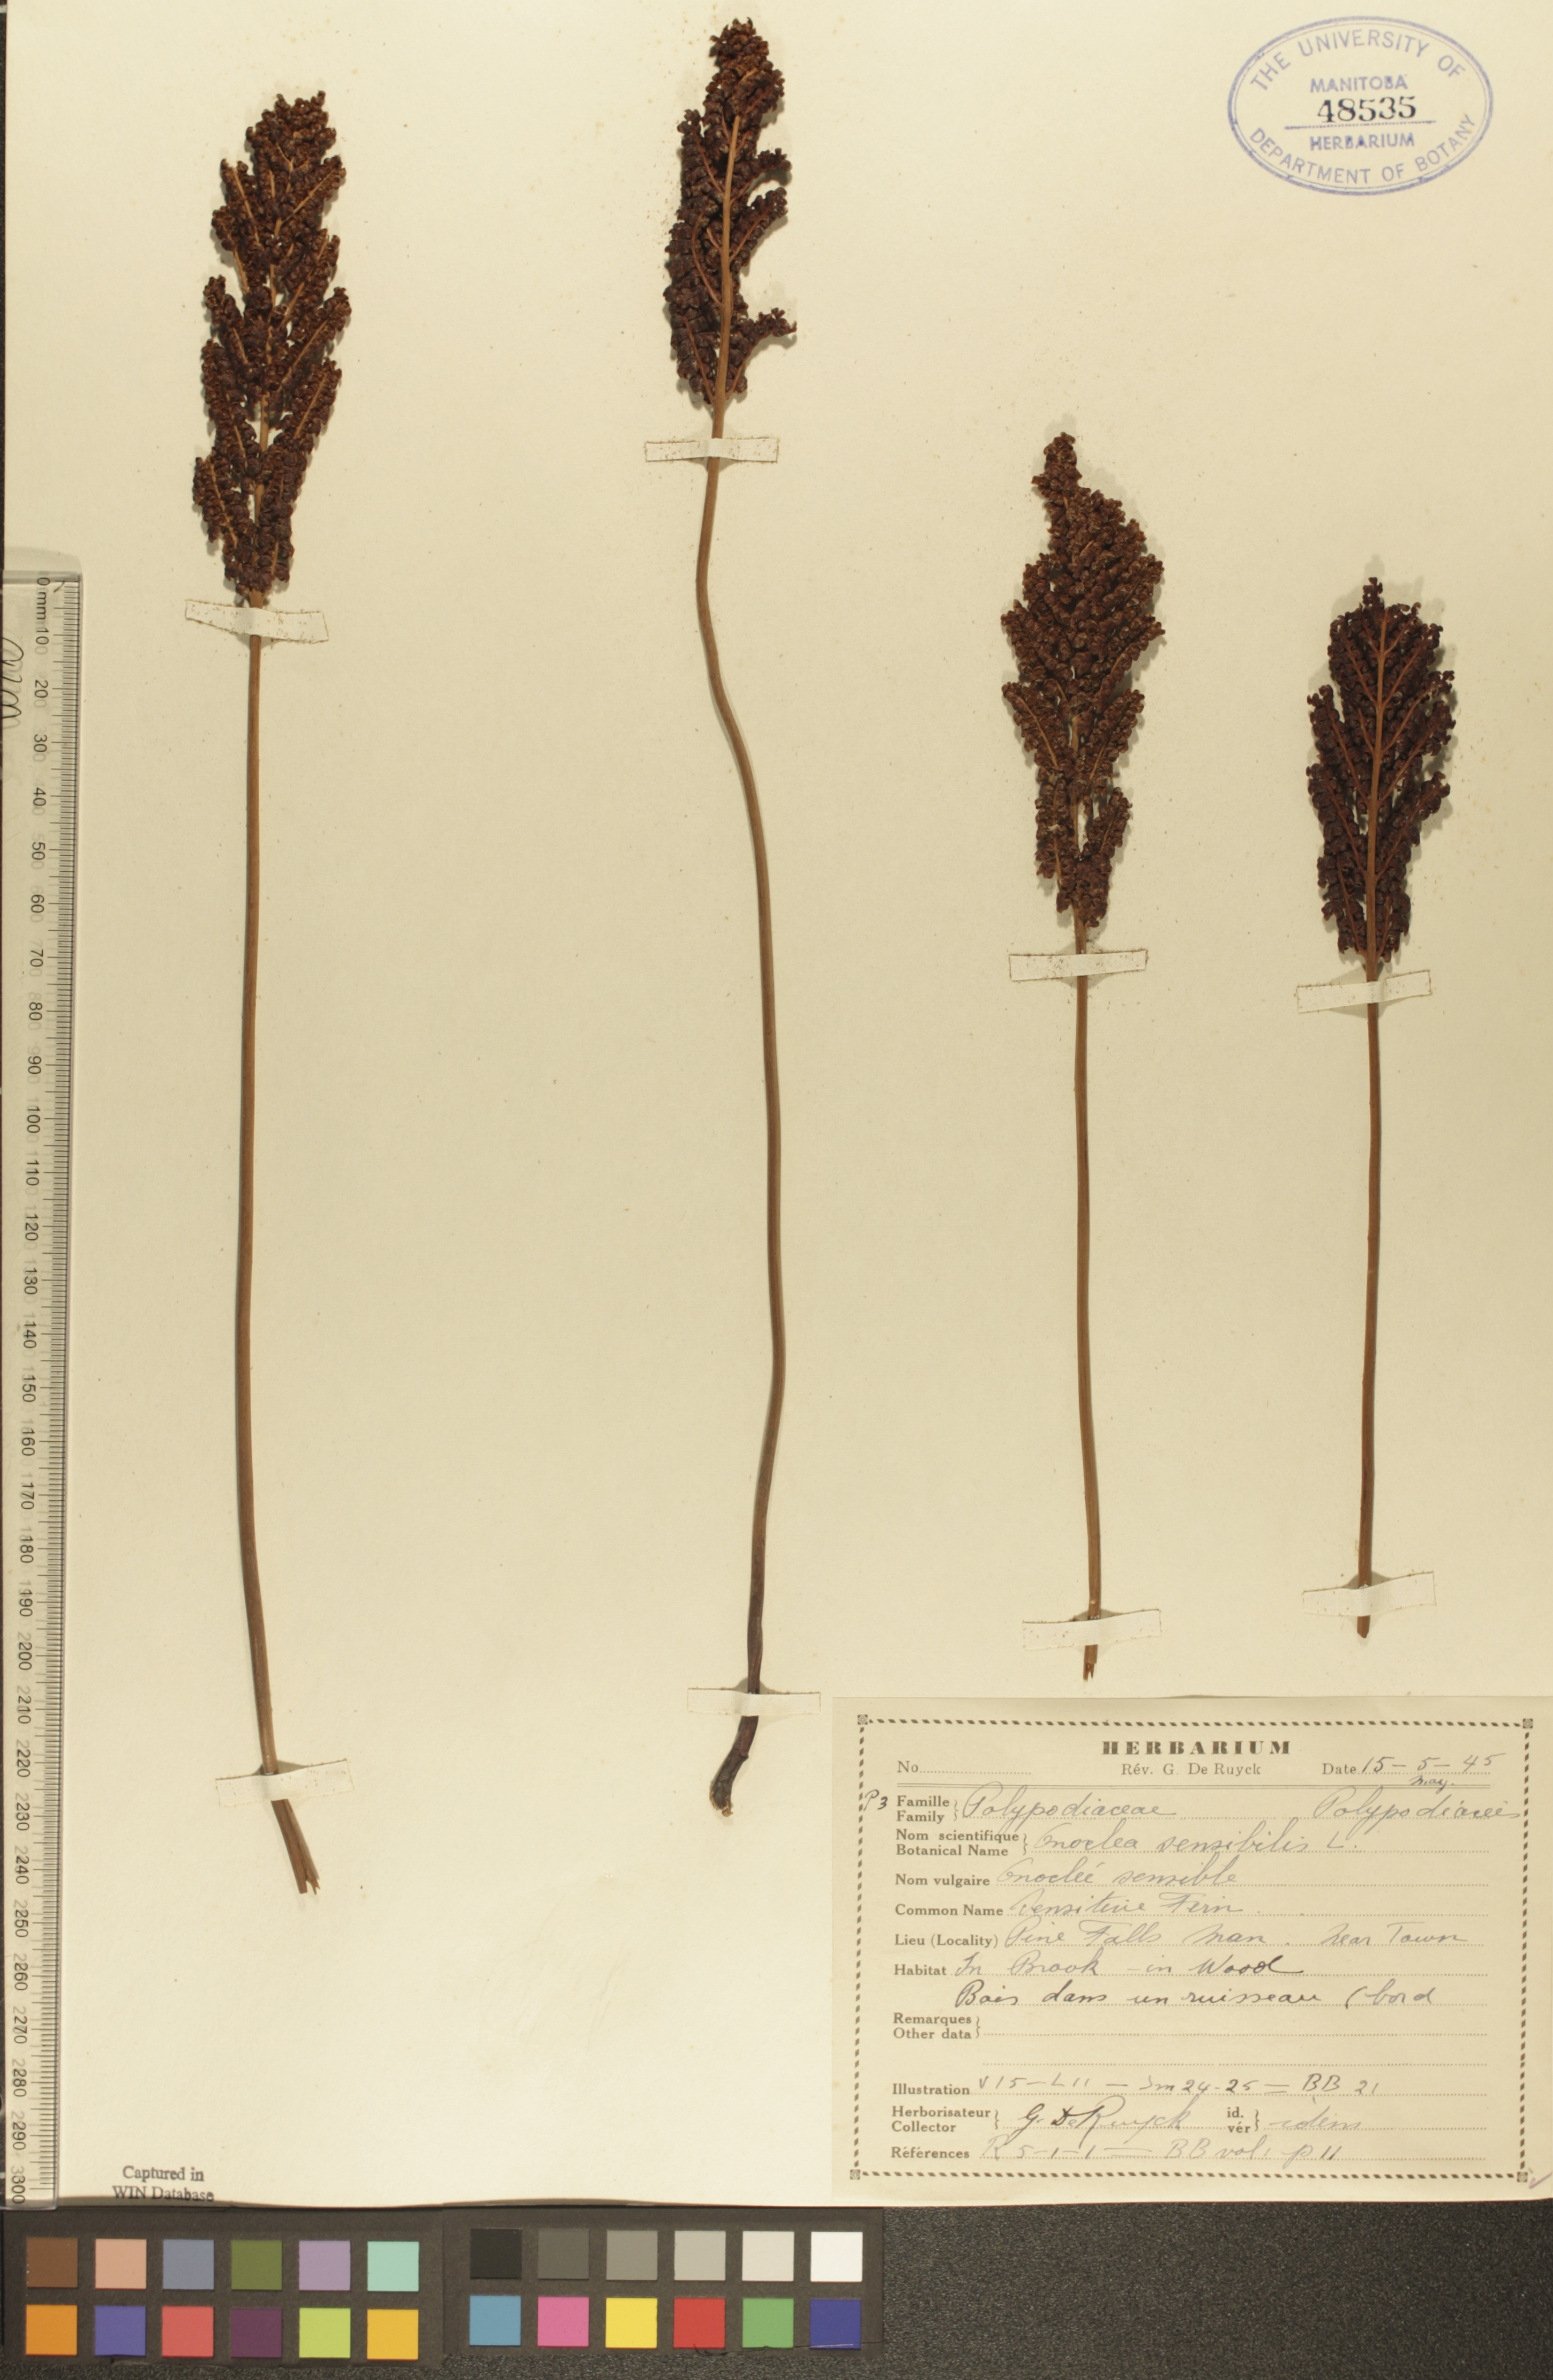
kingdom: Plantae
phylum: Tracheophyta
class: Polypodiopsida
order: Polypodiales
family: Onocleaceae
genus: Onoclea
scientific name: Onoclea sensibilis
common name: Sensitive fern
